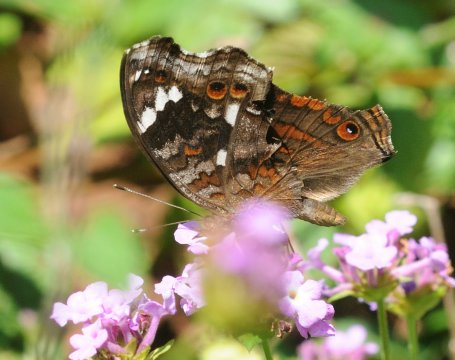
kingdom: Animalia
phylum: Arthropoda
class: Insecta
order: Lepidoptera
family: Nymphalidae
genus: Junonia
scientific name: Junonia natalica
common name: Natal Pansy
